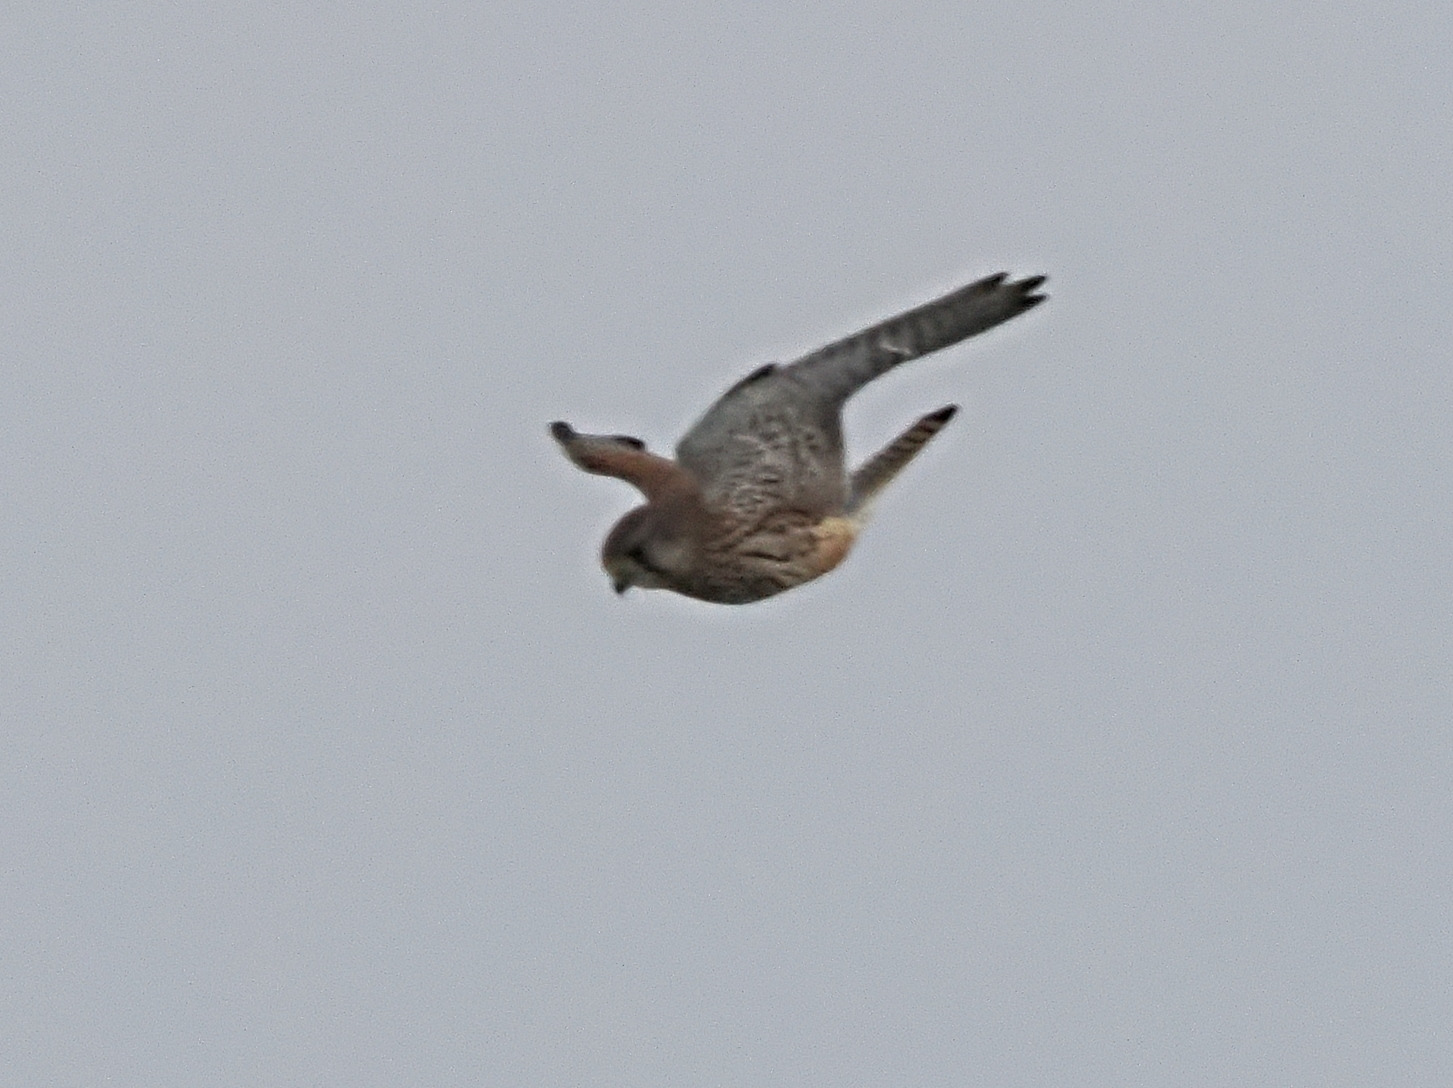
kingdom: Animalia
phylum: Chordata
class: Aves
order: Falconiformes
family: Falconidae
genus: Falco
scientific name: Falco tinnunculus
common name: Tårnfalk
